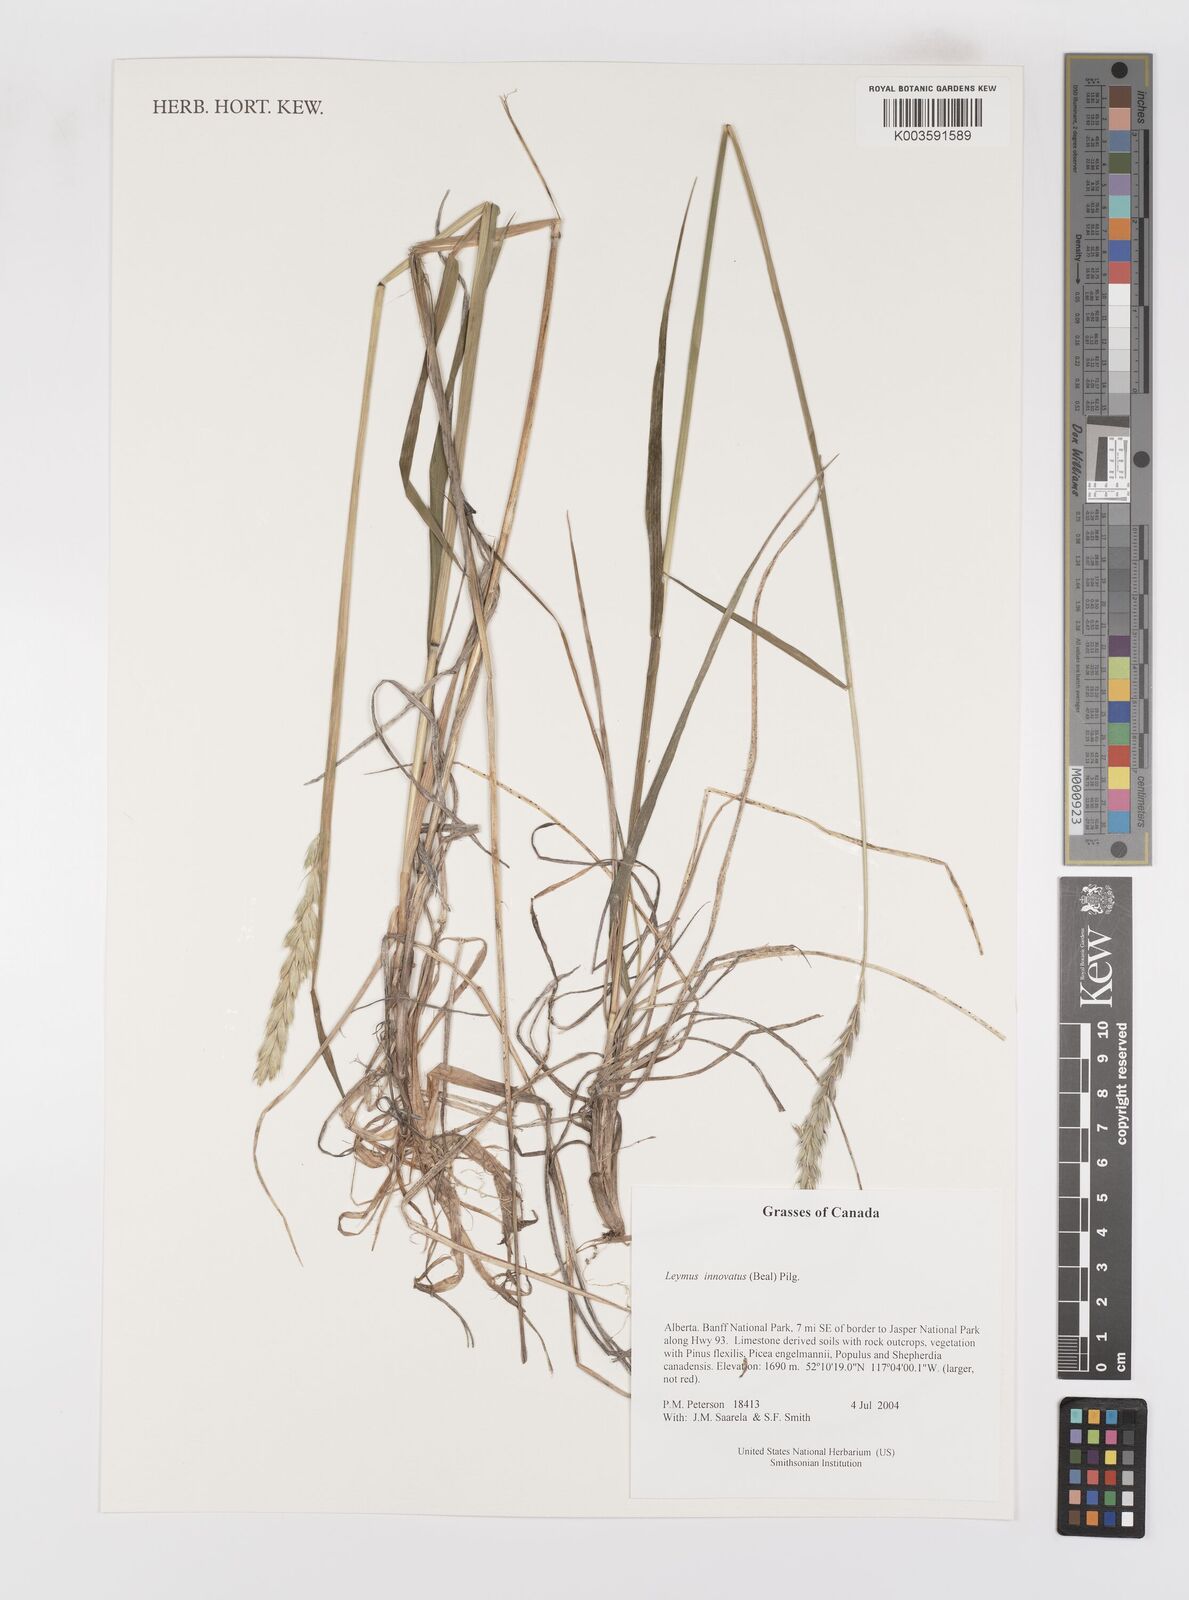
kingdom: Plantae
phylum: Tracheophyta
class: Liliopsida
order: Poales
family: Poaceae
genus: Leymus
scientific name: Leymus innovatus
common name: Boreal wild rye
